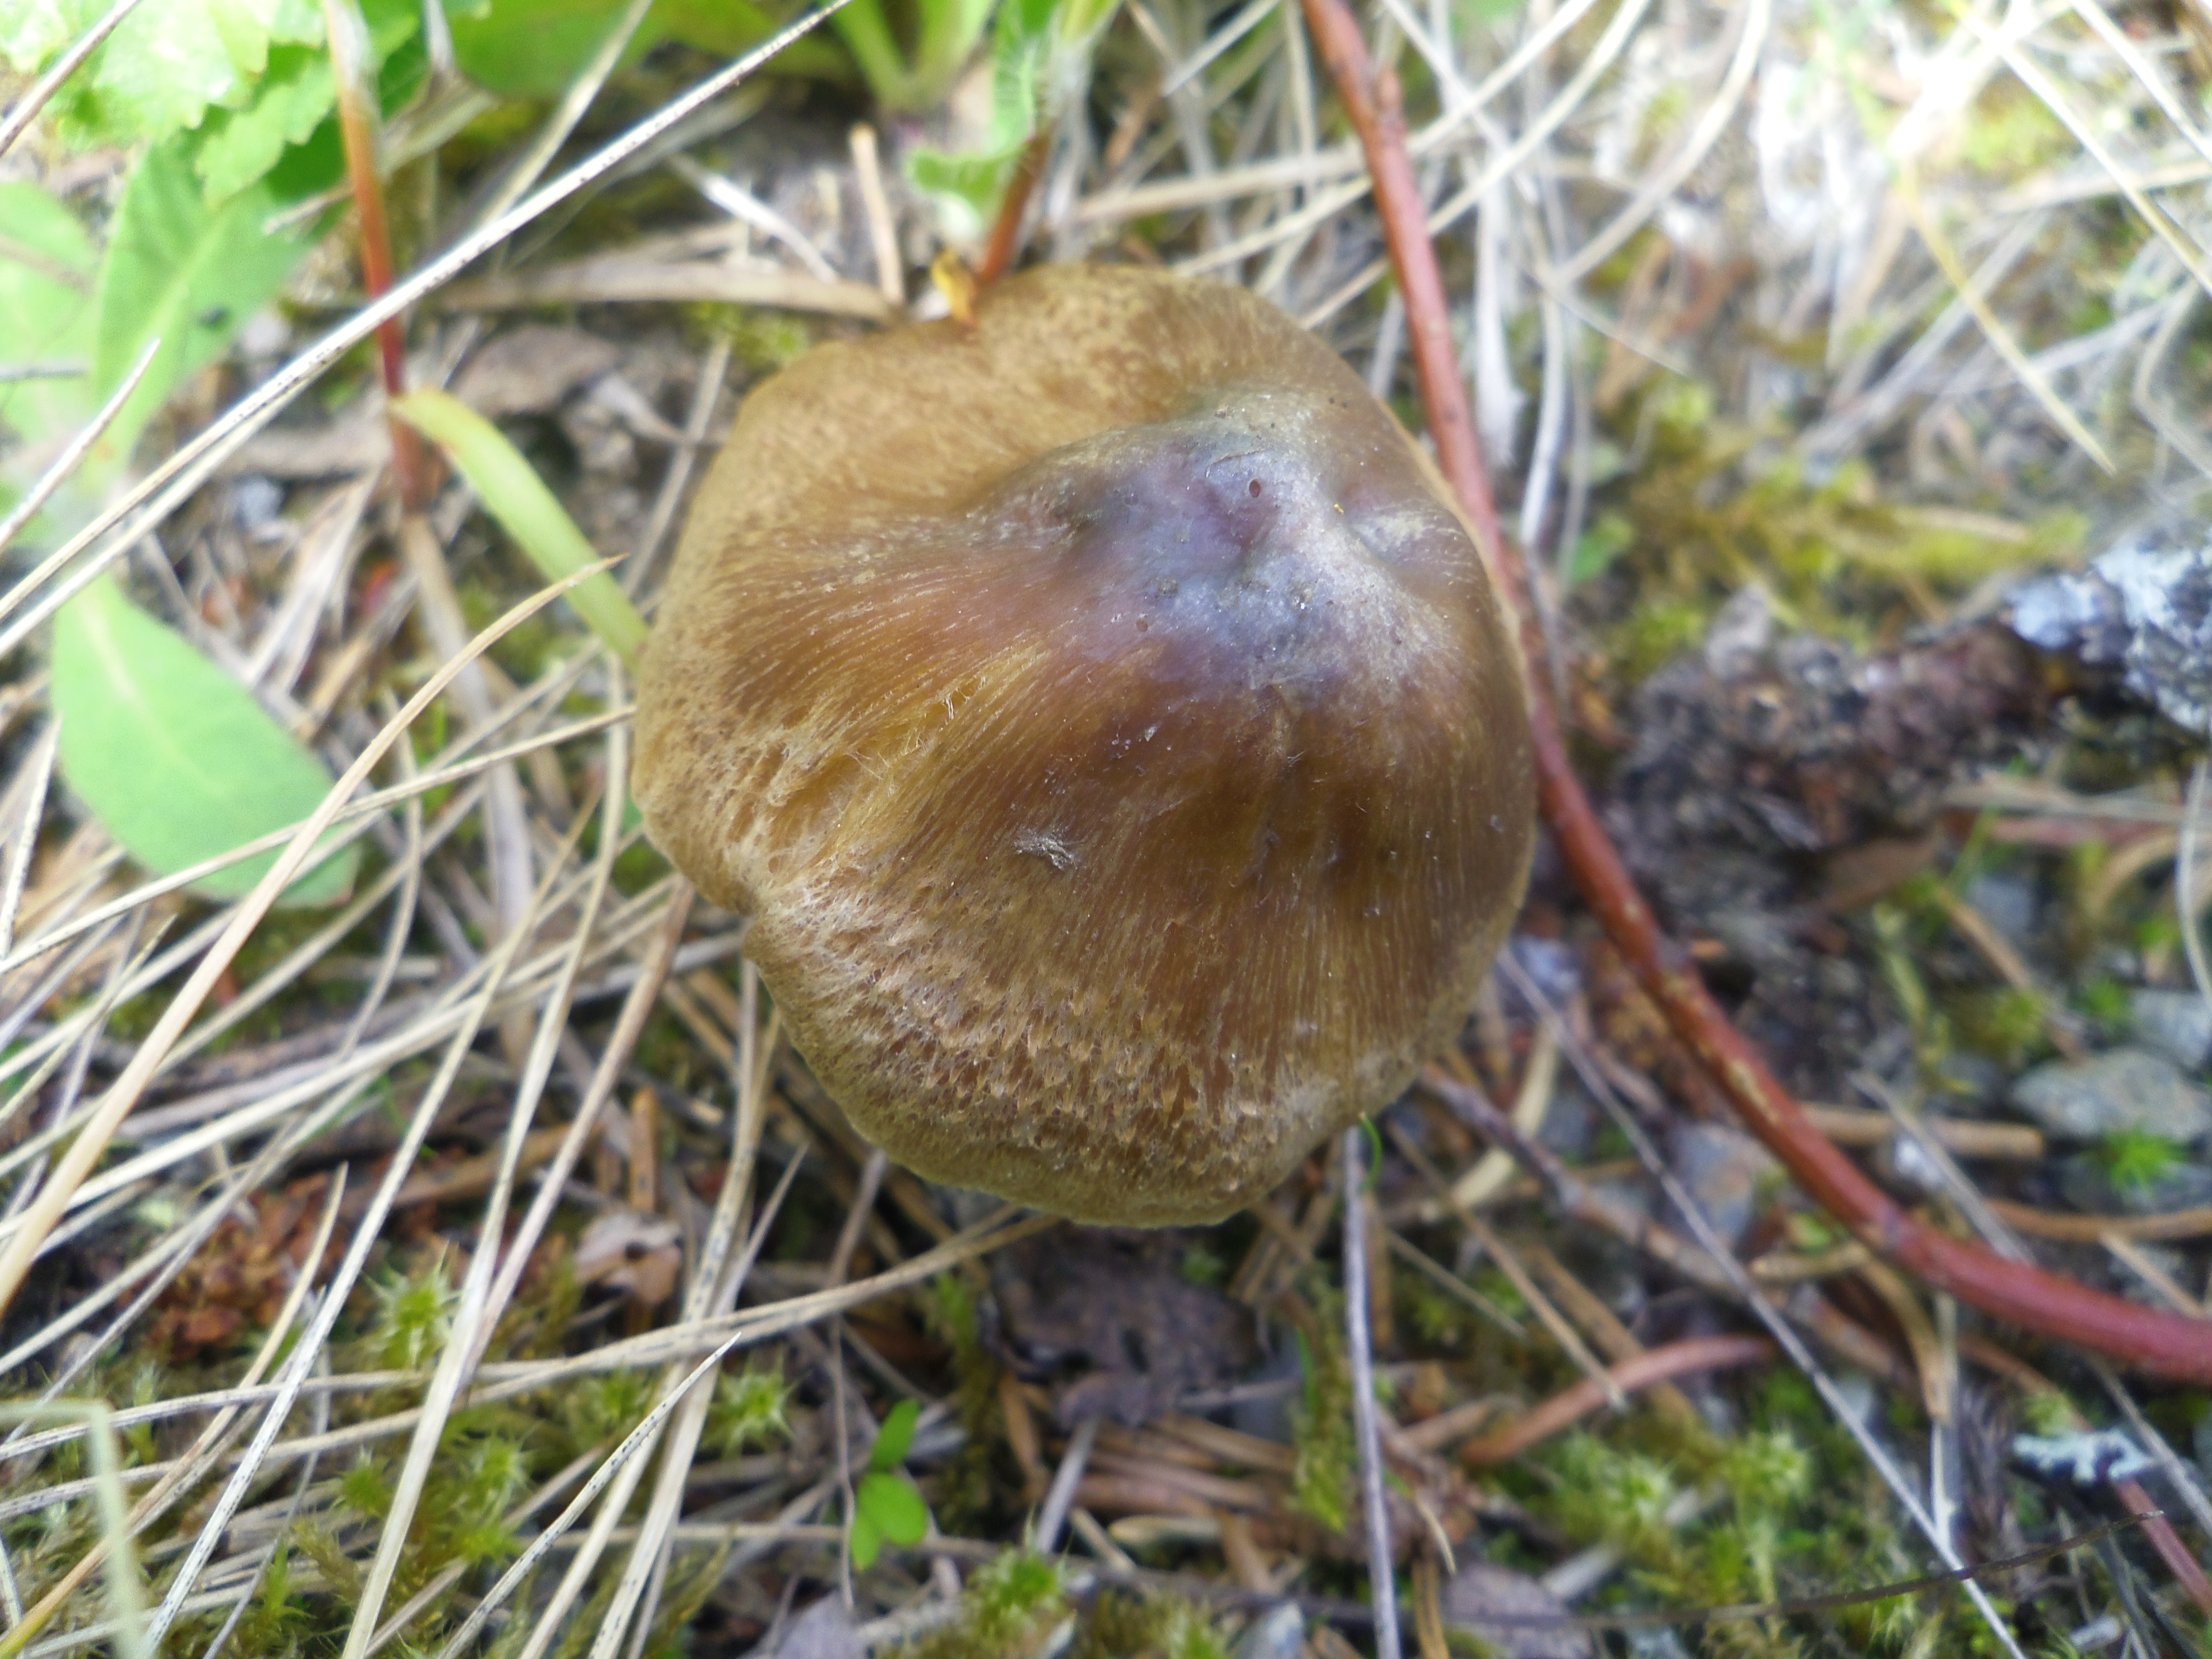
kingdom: Fungi
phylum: Basidiomycota
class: Agaricomycetes
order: Agaricales
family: Inocybaceae
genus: Inocybe
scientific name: Inocybe grammata
